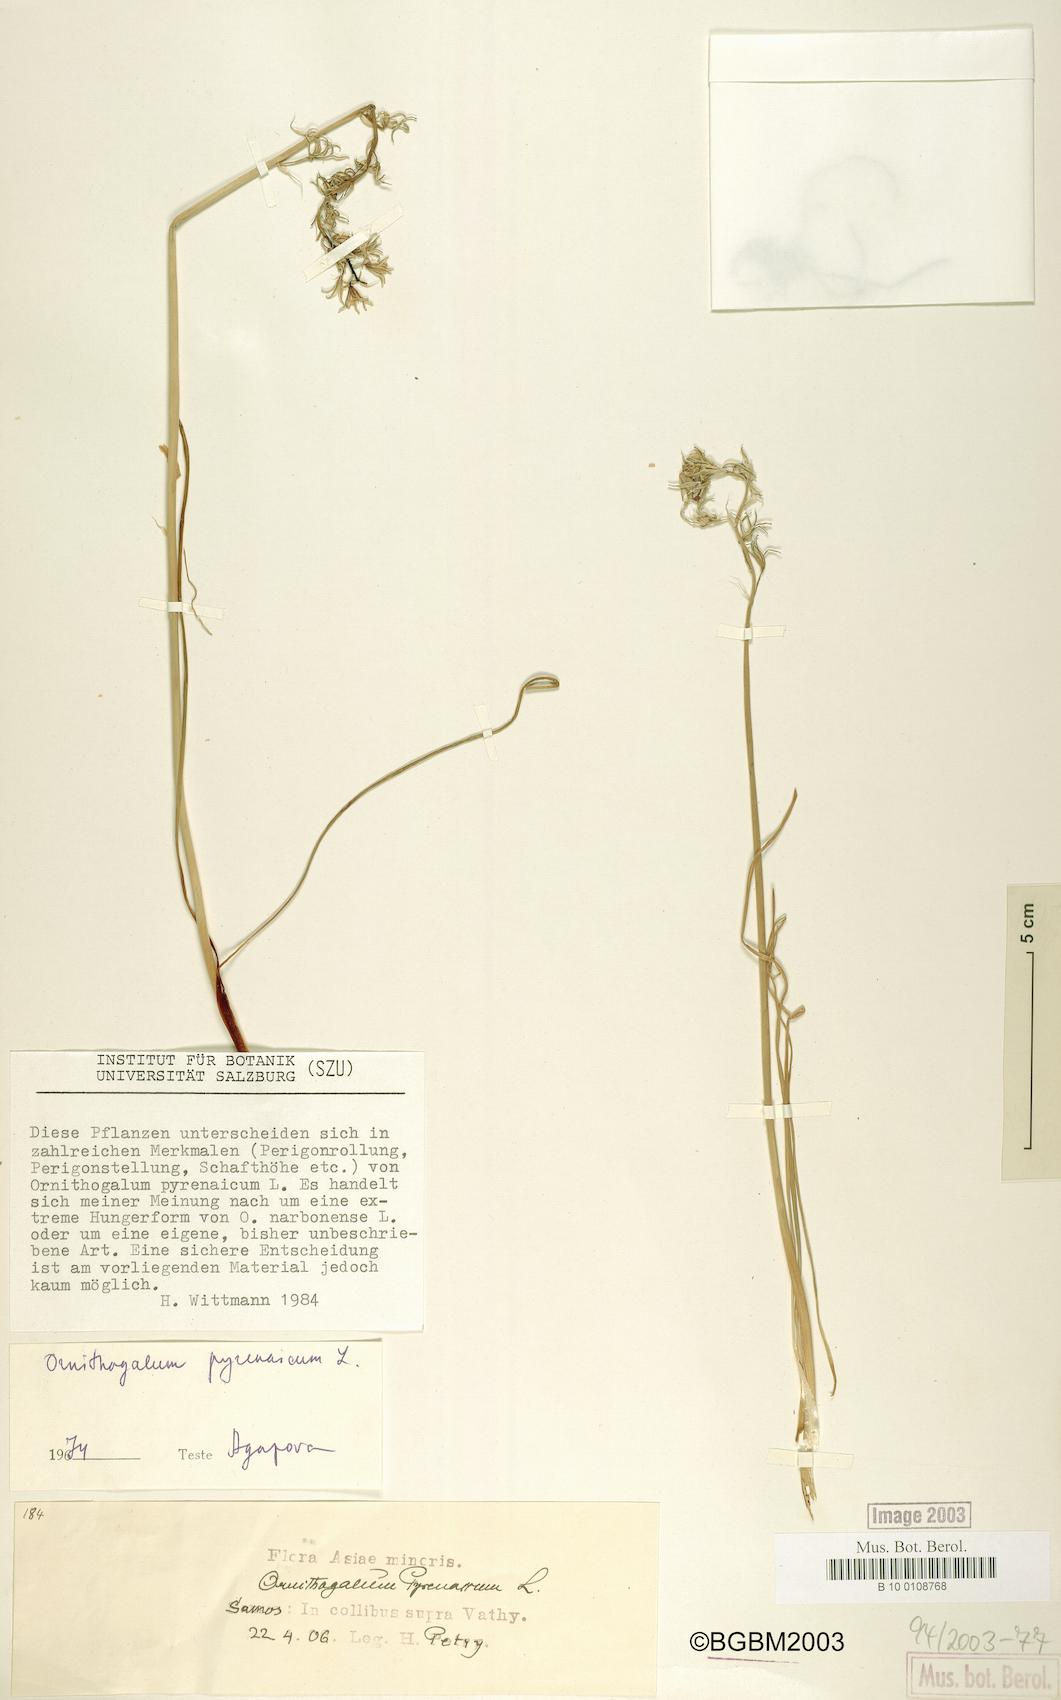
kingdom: Plantae
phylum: Tracheophyta
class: Liliopsida
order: Asparagales
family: Asparagaceae
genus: Ornithogalum
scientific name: Ornithogalum narbonense
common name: Bath-asparagus
